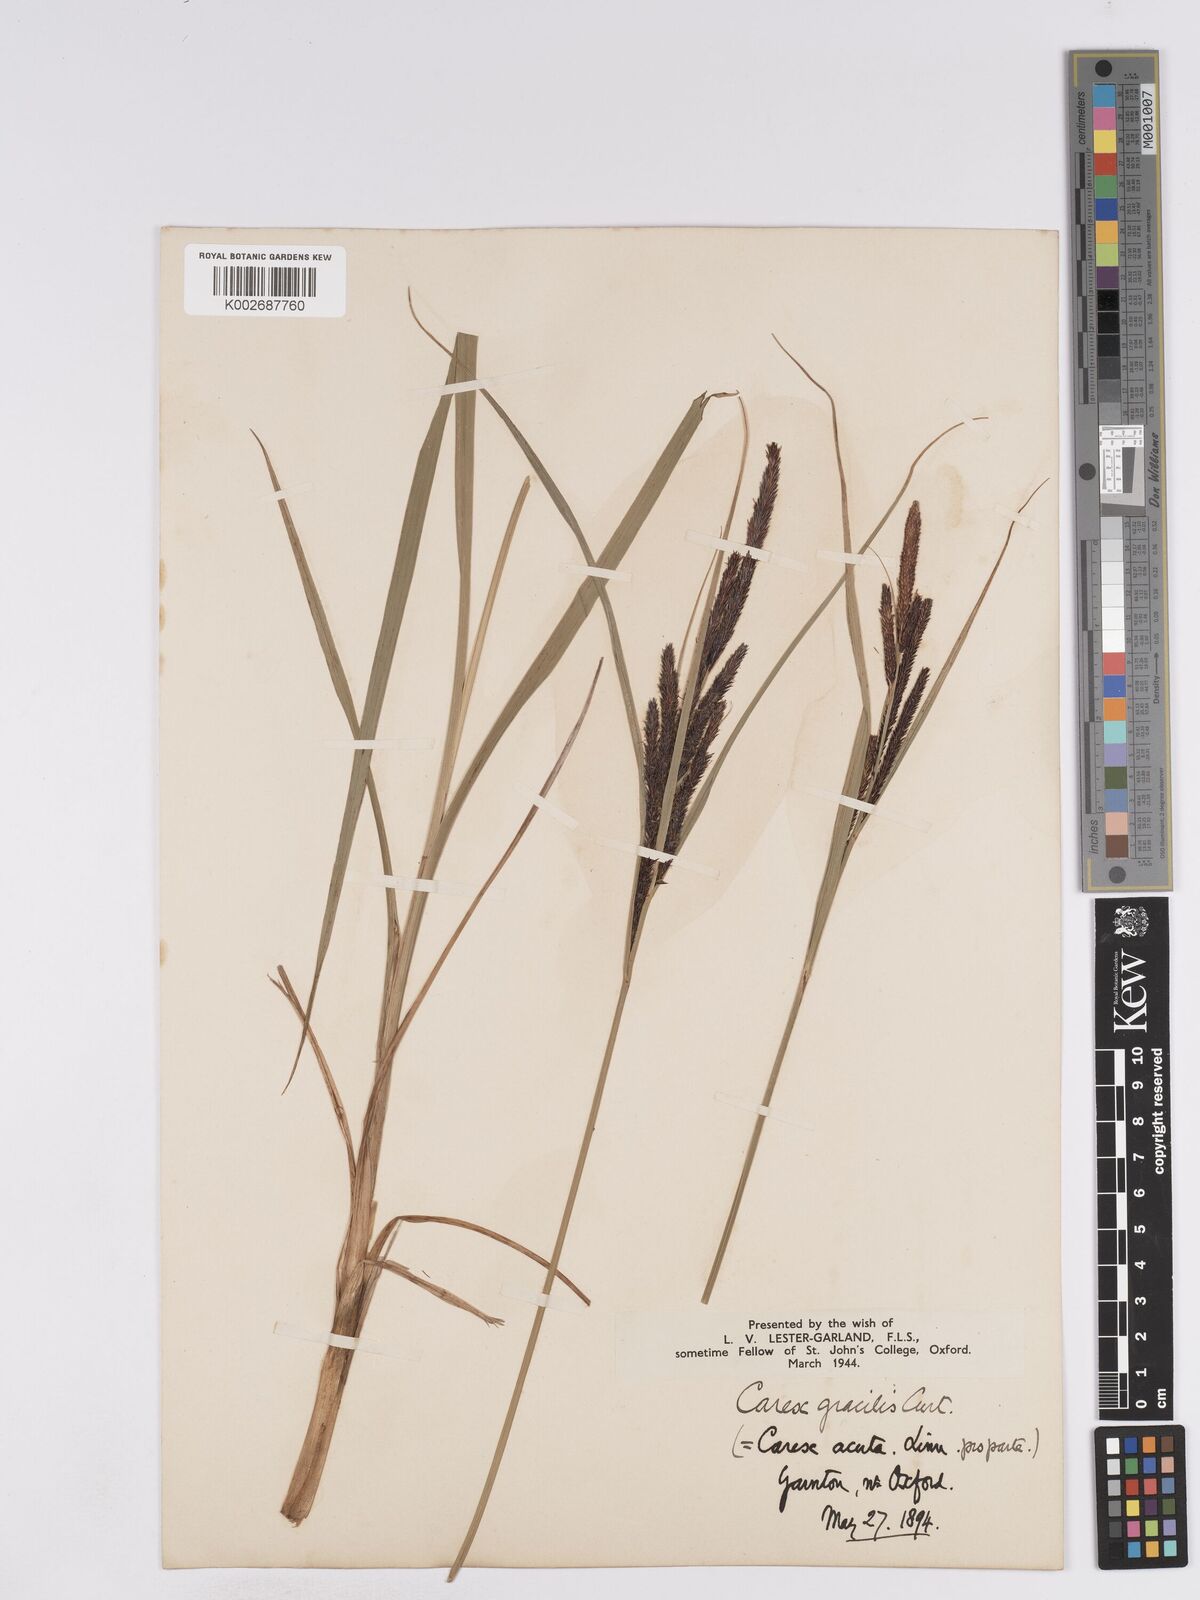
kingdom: Plantae
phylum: Tracheophyta
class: Liliopsida
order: Poales
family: Cyperaceae
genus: Carex
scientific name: Carex acuta
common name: Slender tufted-sedge
